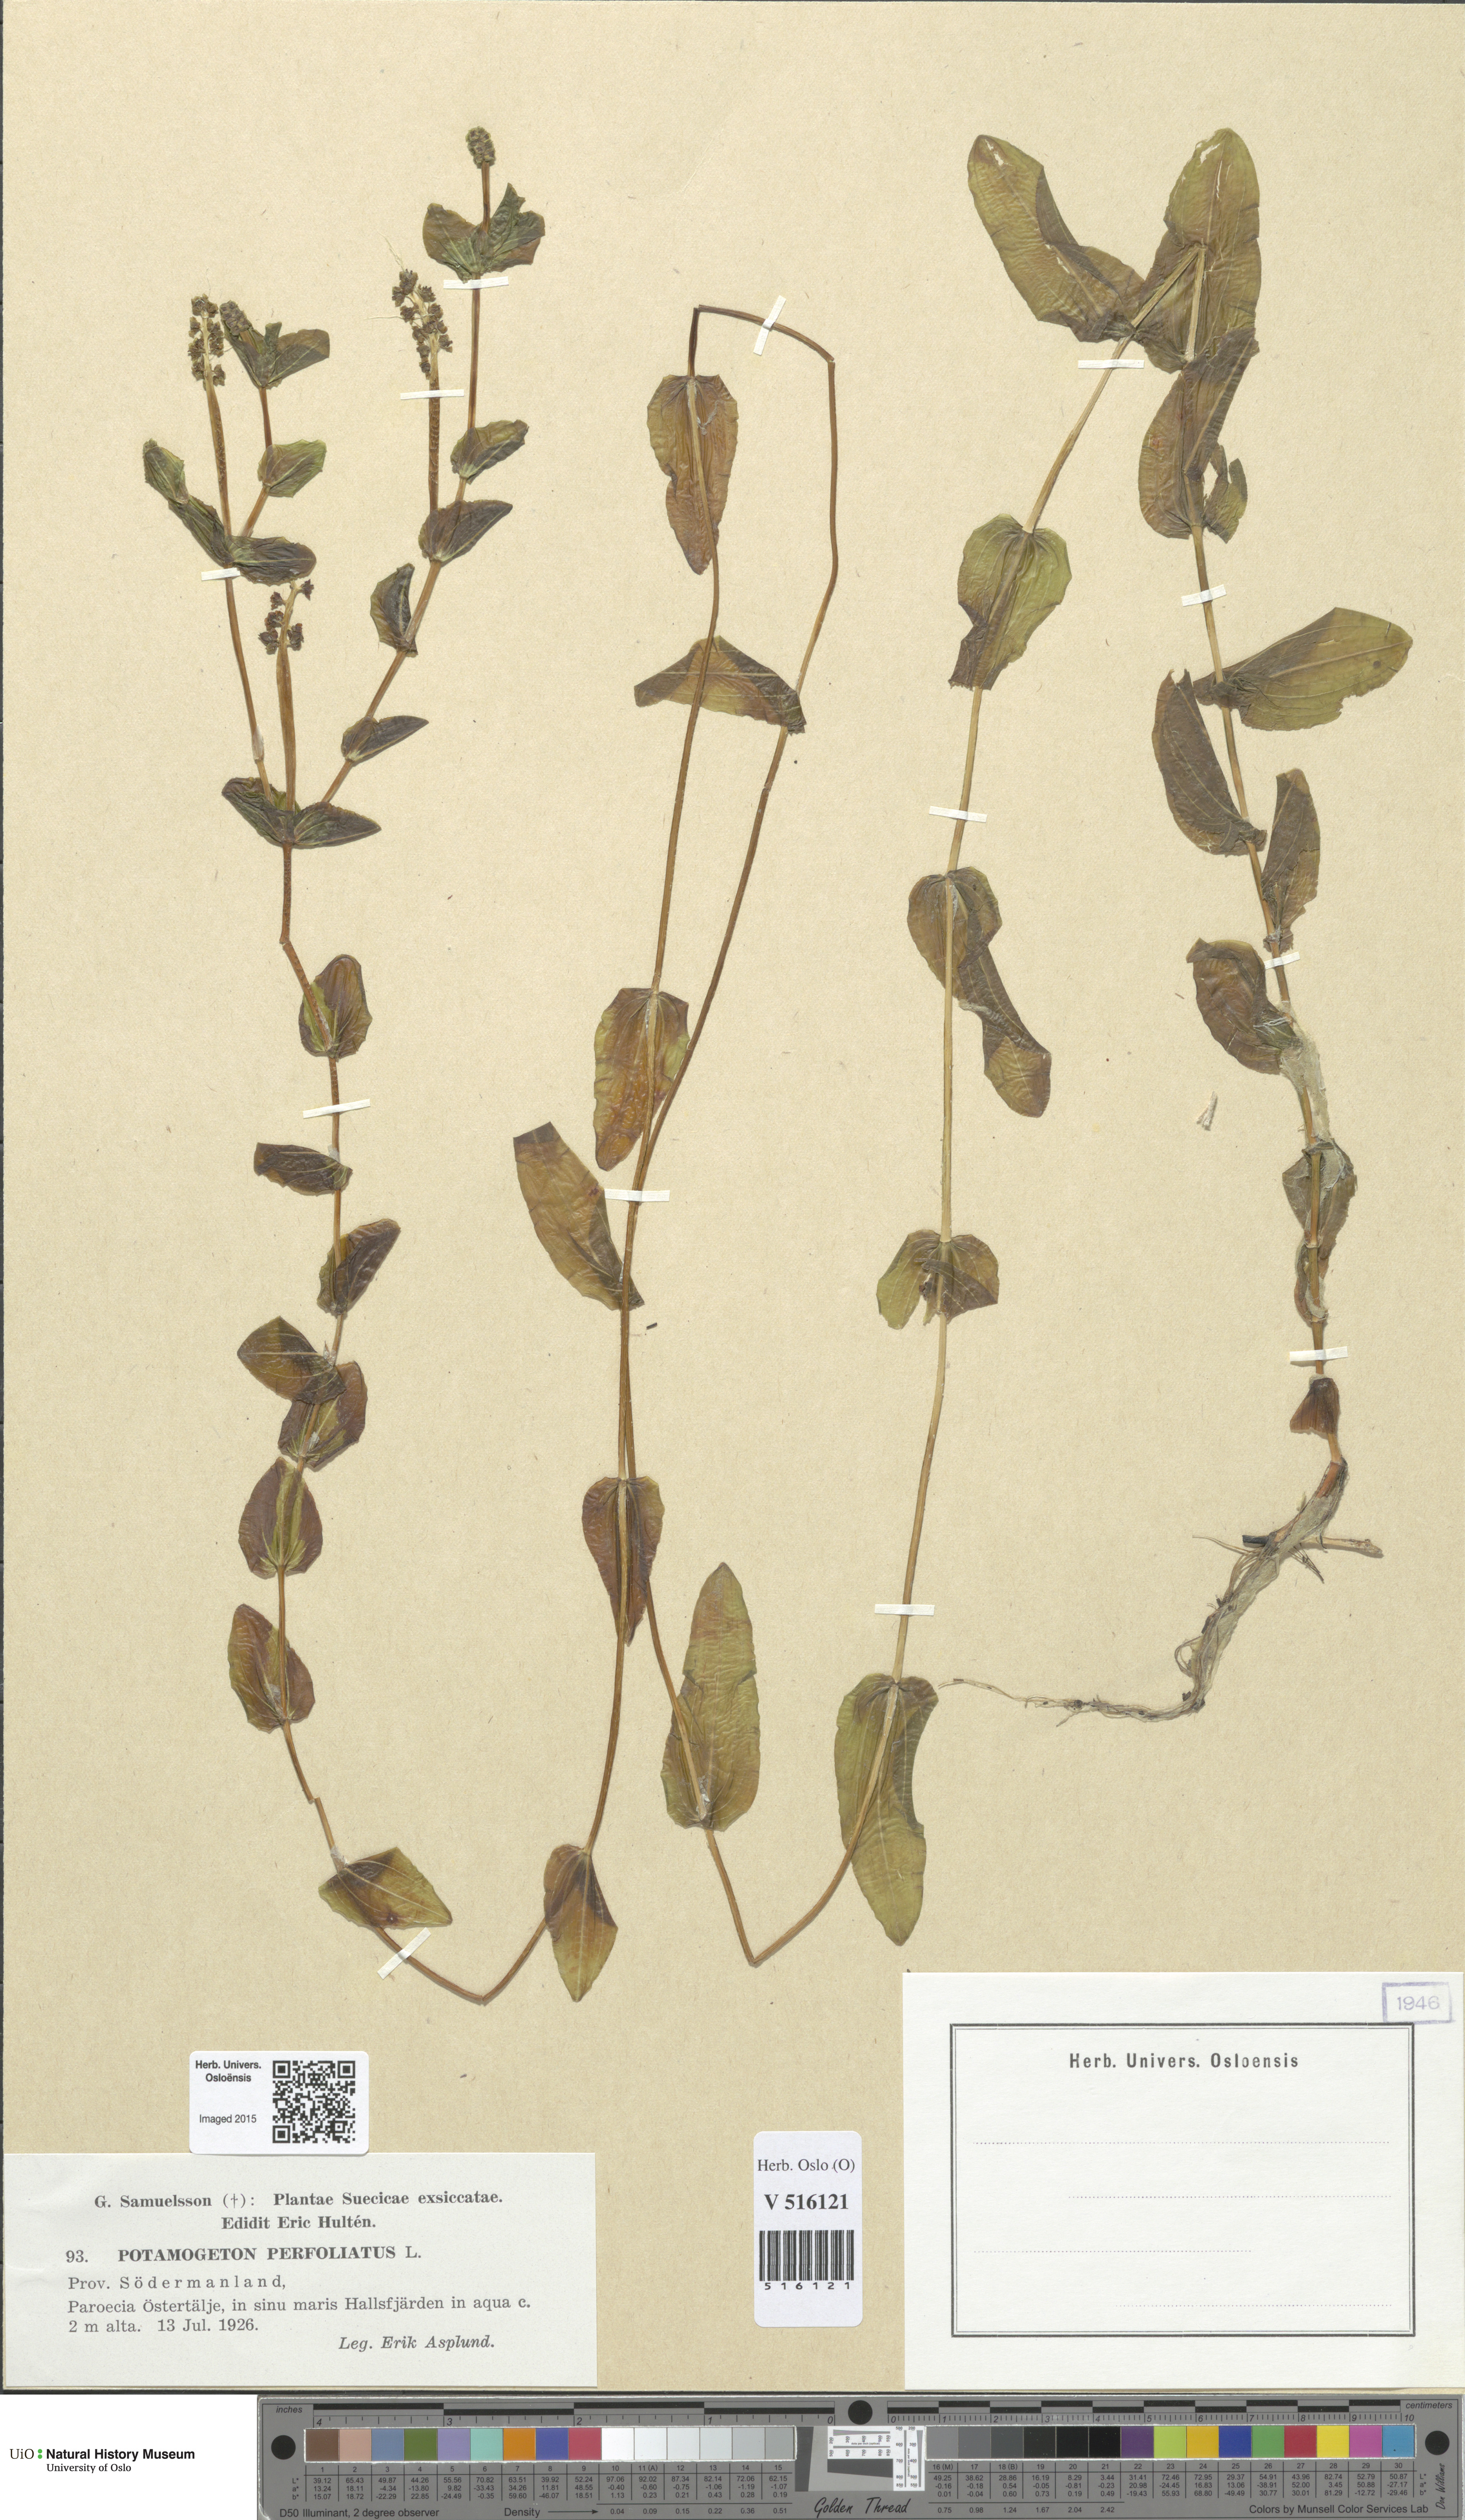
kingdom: Plantae
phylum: Tracheophyta
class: Liliopsida
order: Alismatales
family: Potamogetonaceae
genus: Potamogeton
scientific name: Potamogeton perfoliatus
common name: Perfoliate pondweed
